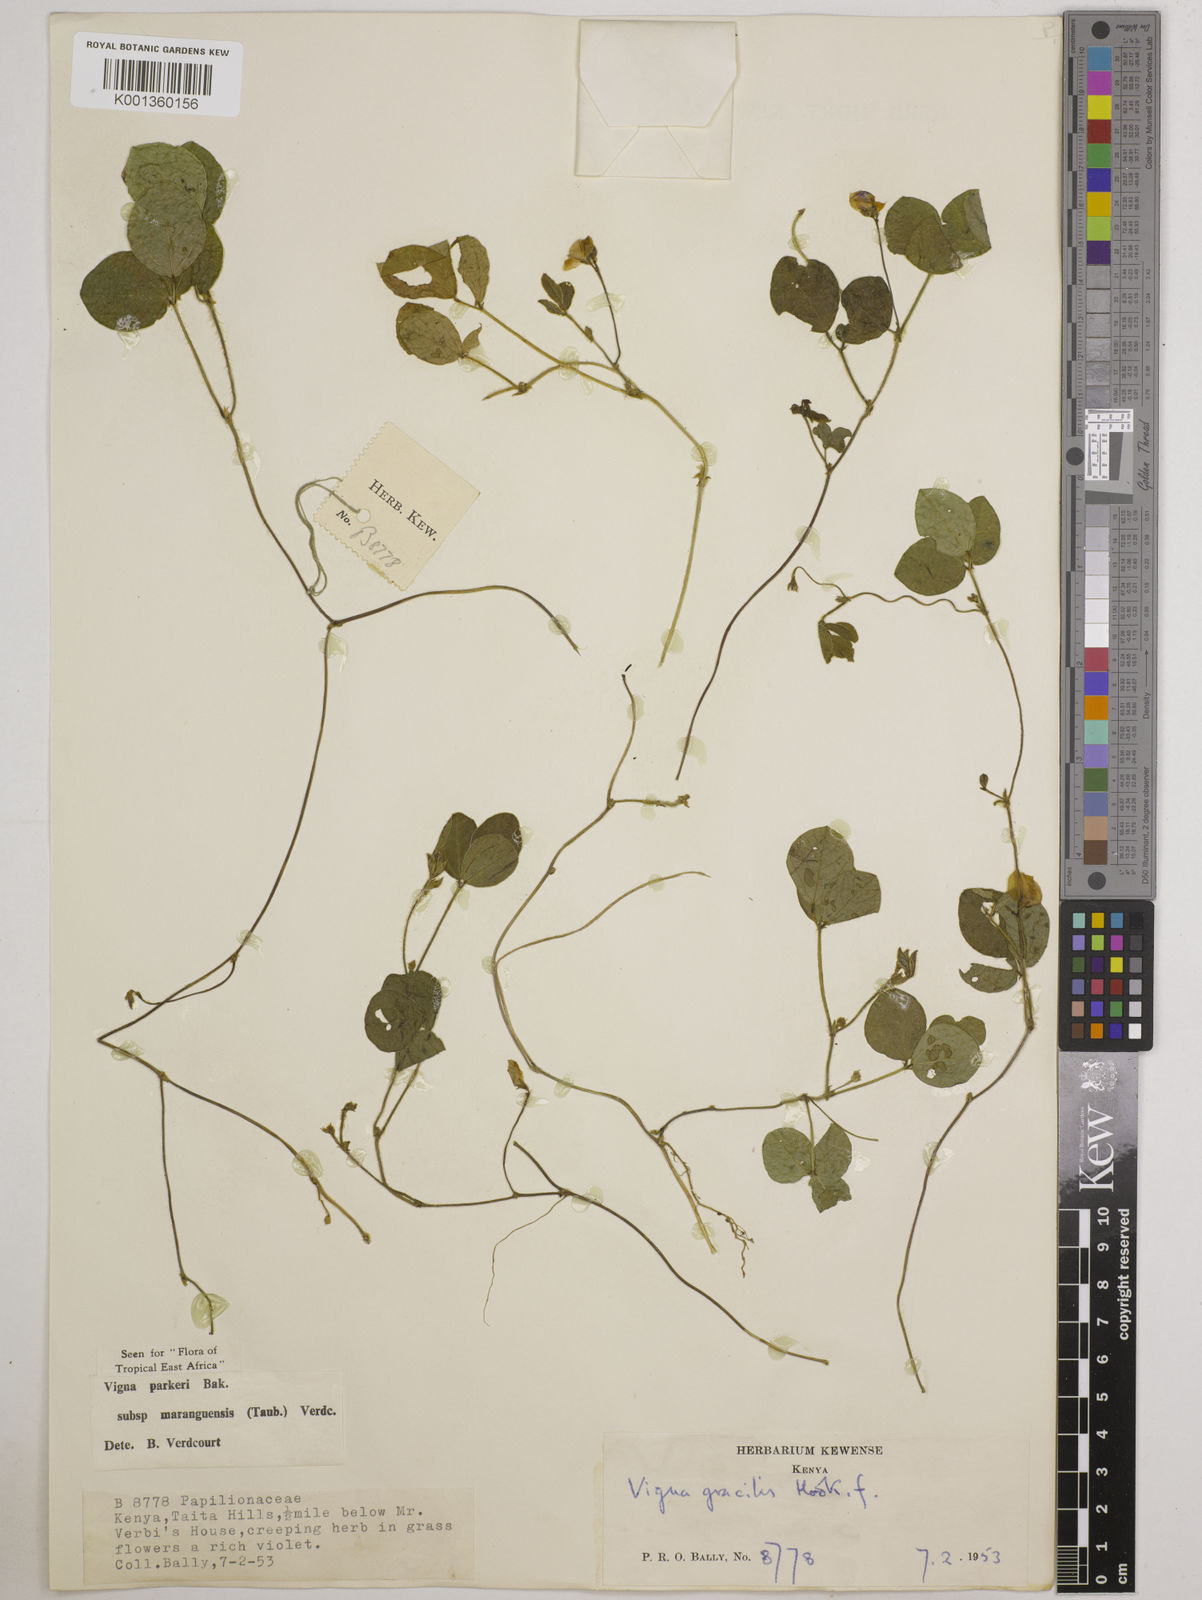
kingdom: Plantae
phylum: Tracheophyta
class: Magnoliopsida
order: Fabales
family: Fabaceae
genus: Vigna
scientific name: Vigna
